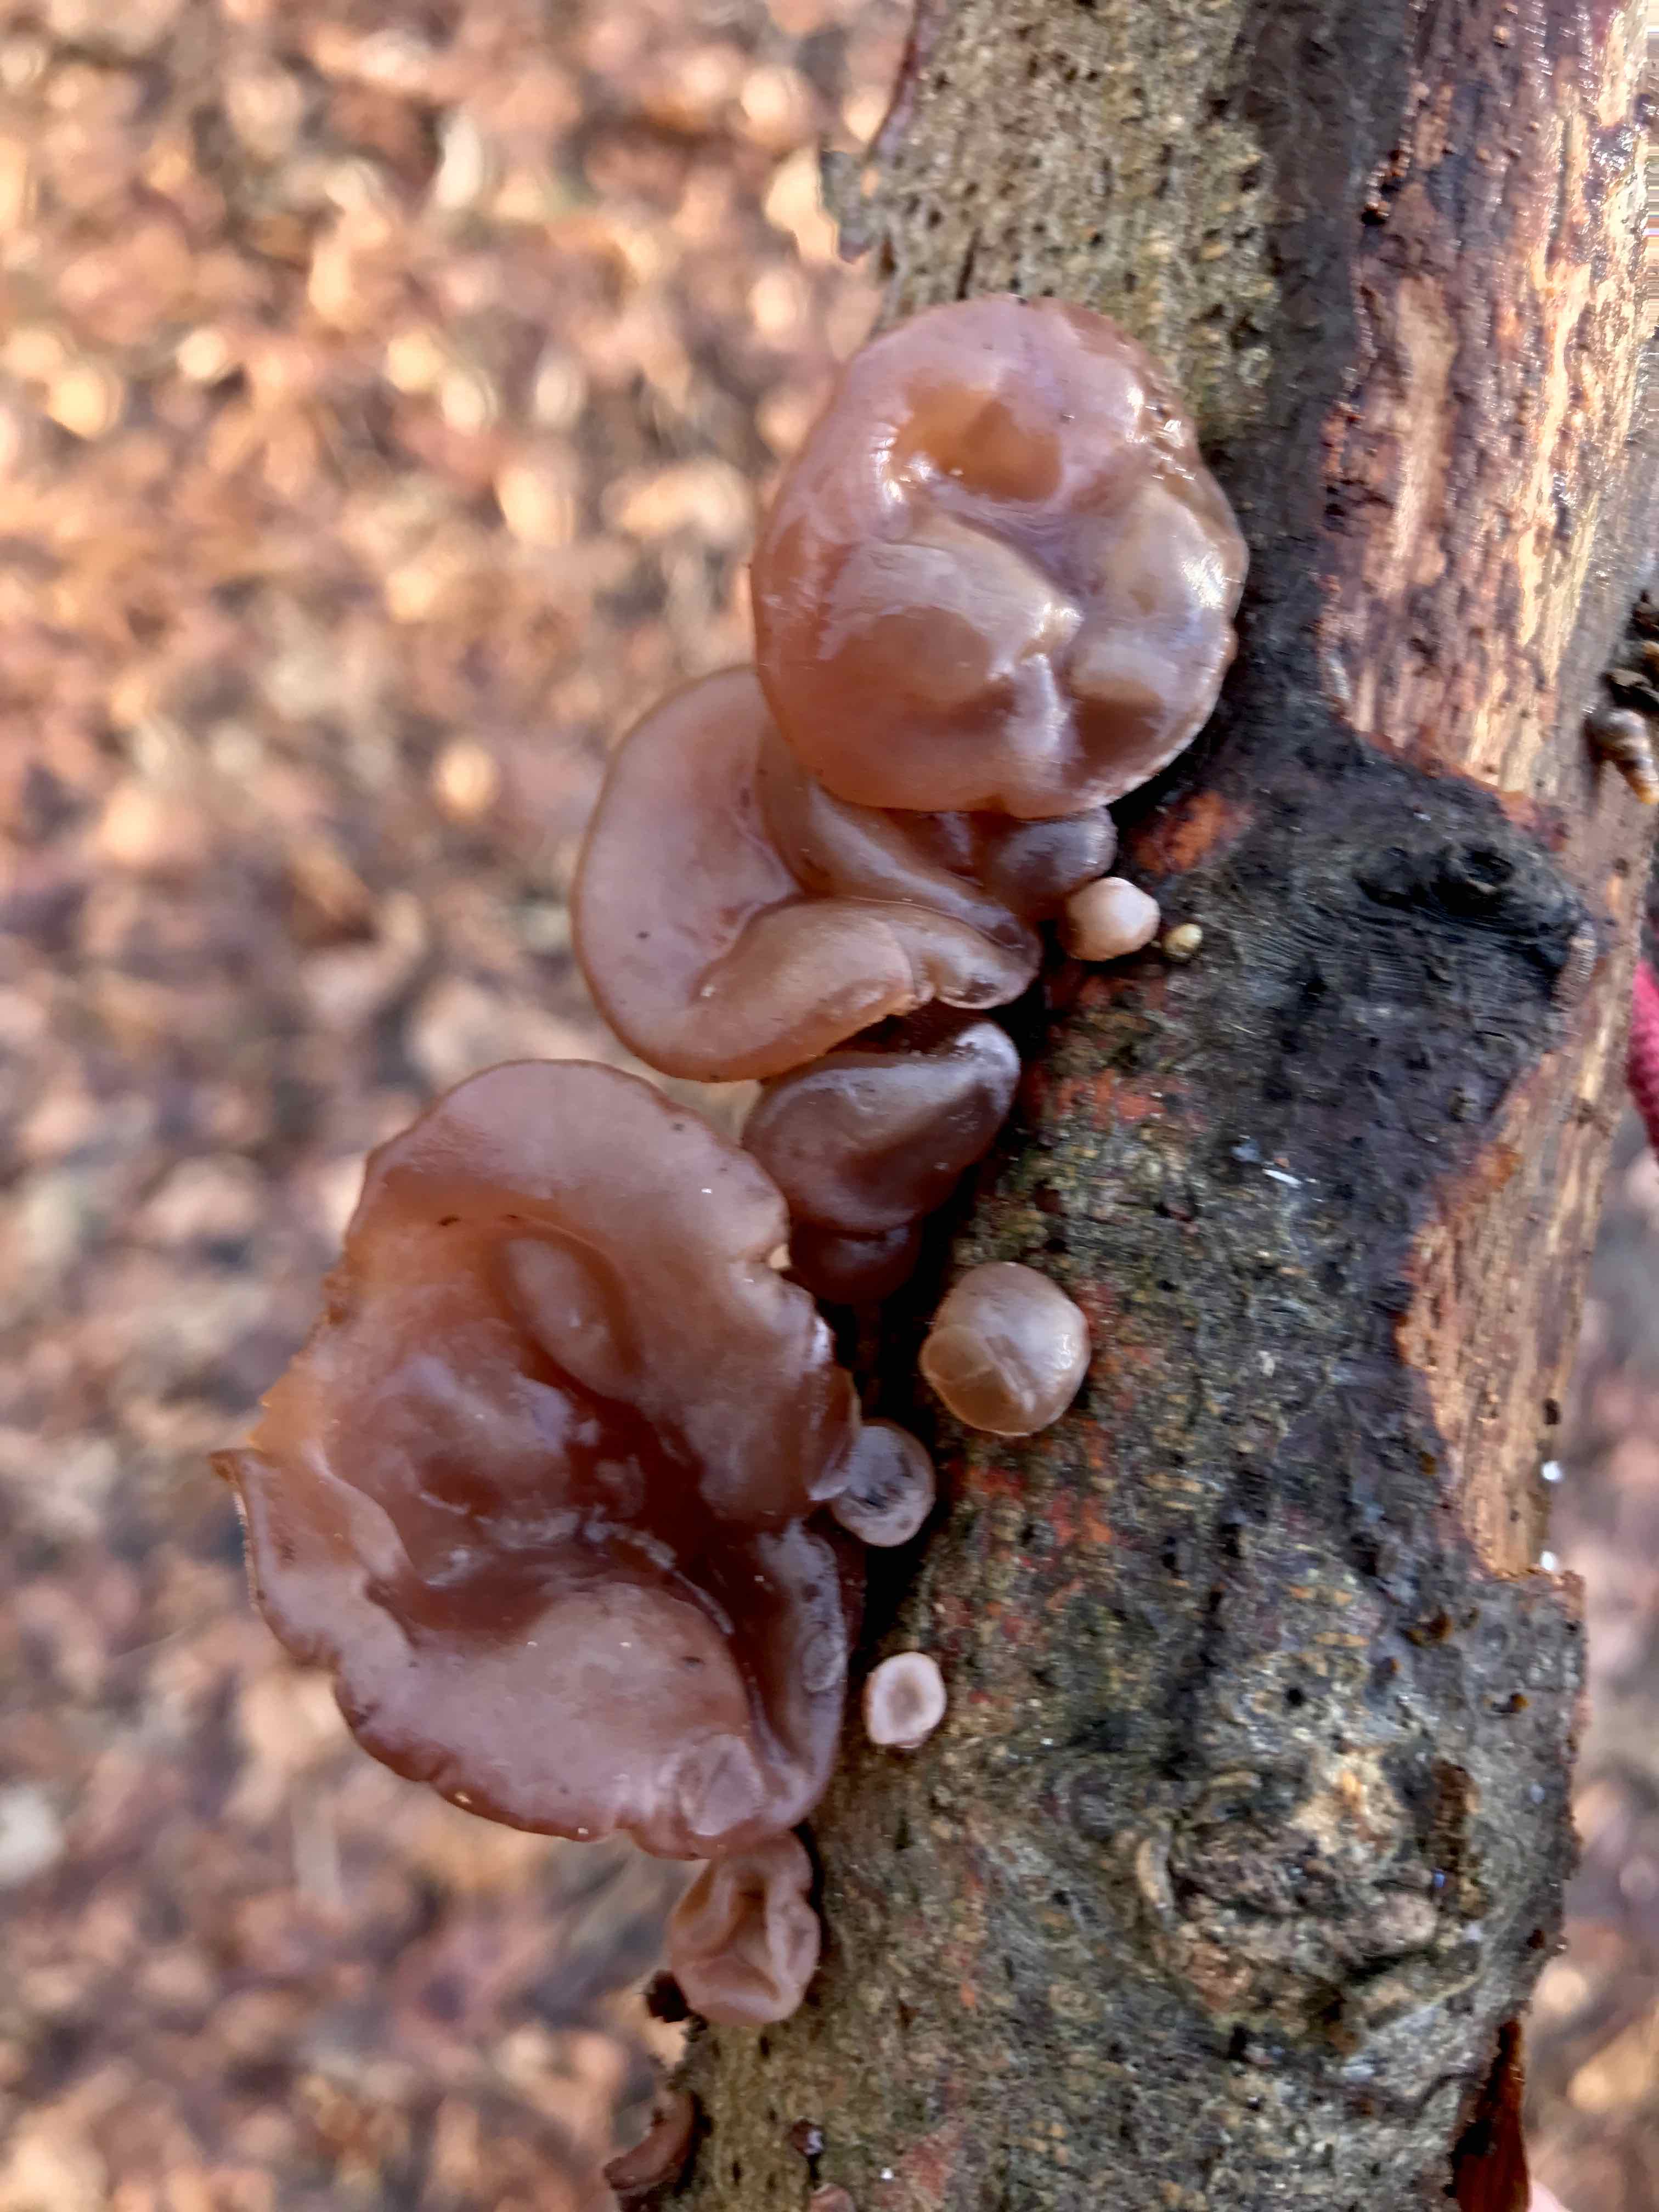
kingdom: Fungi
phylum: Basidiomycota
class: Agaricomycetes
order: Auriculariales
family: Auriculariaceae
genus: Auricularia
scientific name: Auricularia auricula-judae
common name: almindelig judasøre
